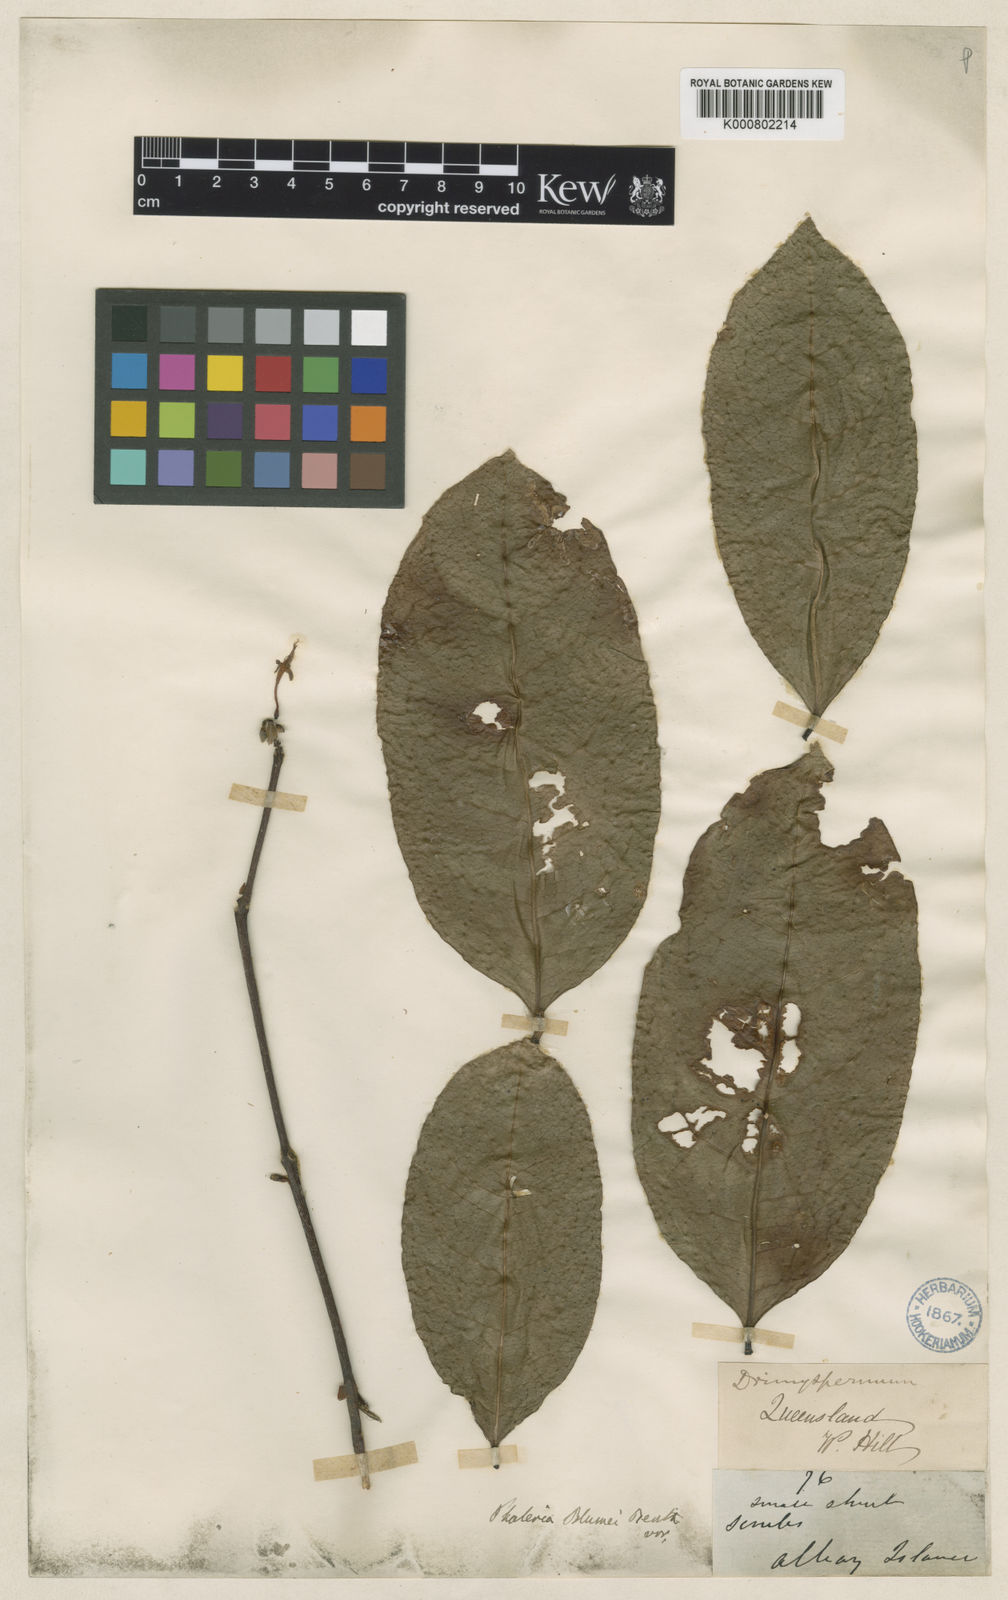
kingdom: Plantae
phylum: Tracheophyta
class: Magnoliopsida
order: Malvales
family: Thymelaeaceae
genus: Phaleria
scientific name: Phaleria
